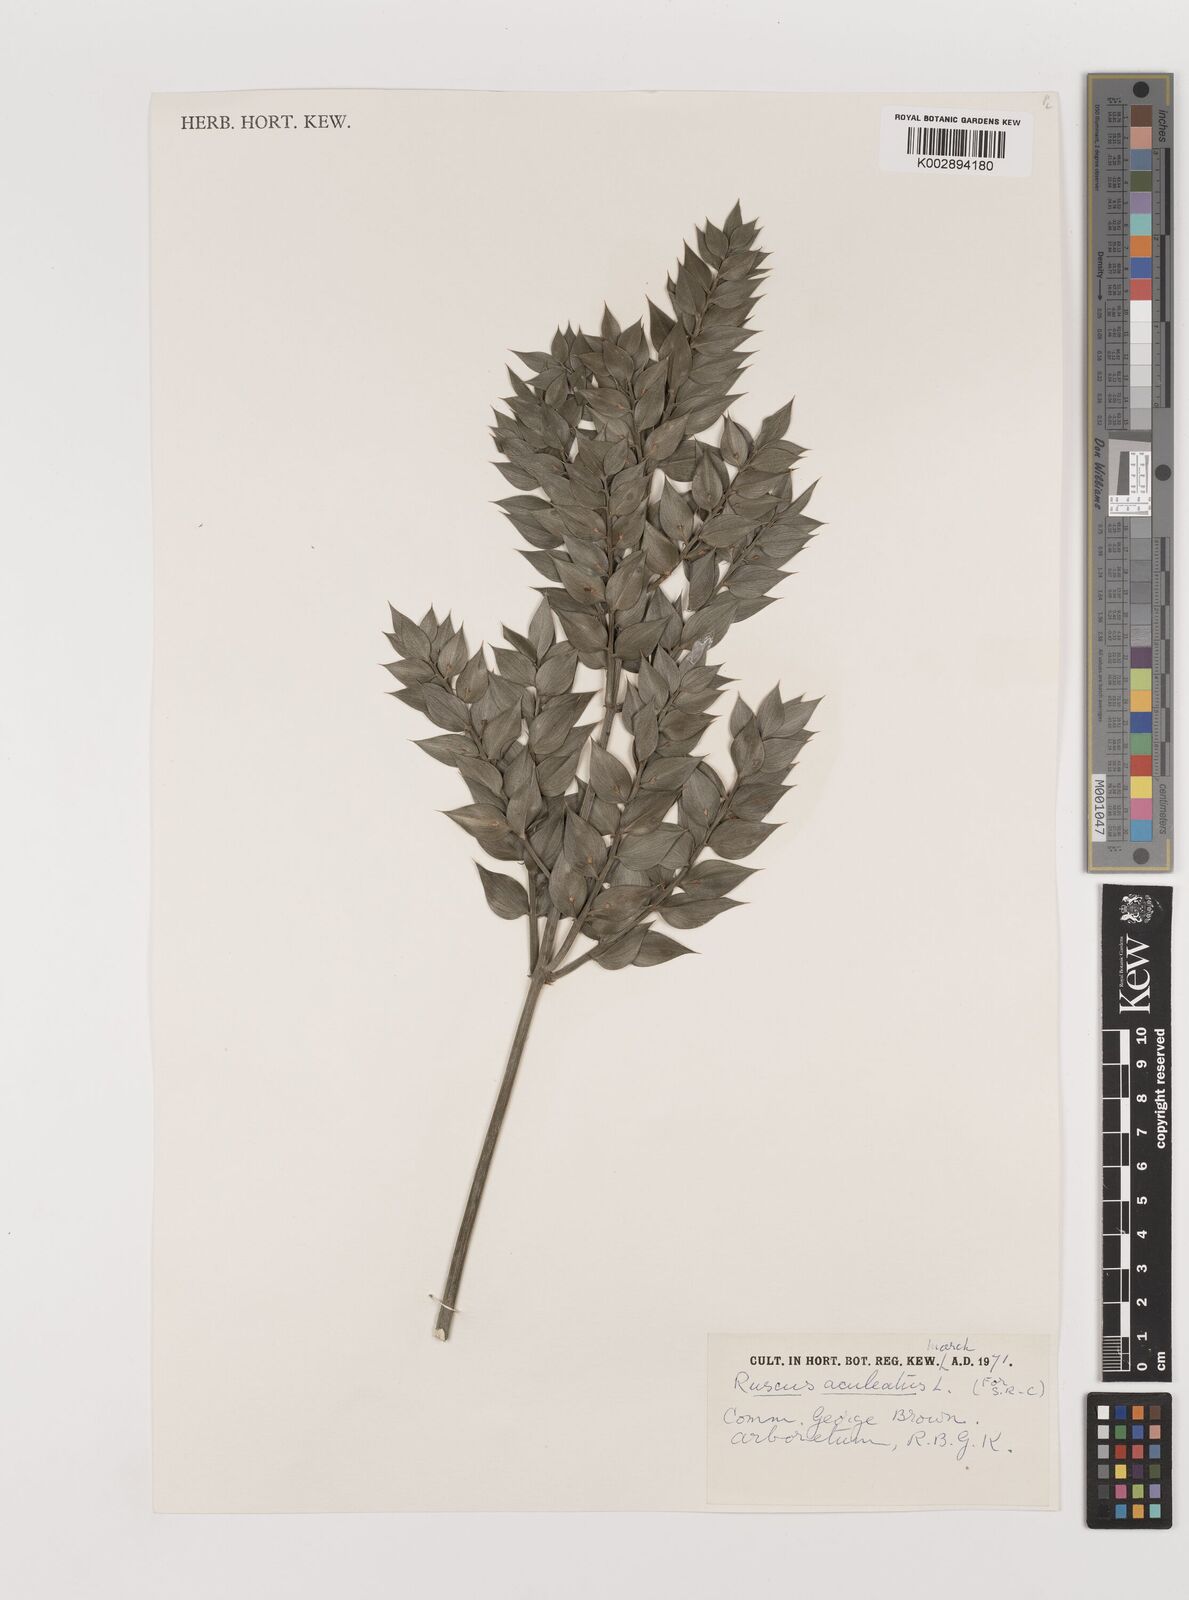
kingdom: Plantae
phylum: Tracheophyta
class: Liliopsida
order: Asparagales
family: Asparagaceae
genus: Ruscus
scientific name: Ruscus aculeatus
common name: Butcher's-broom
